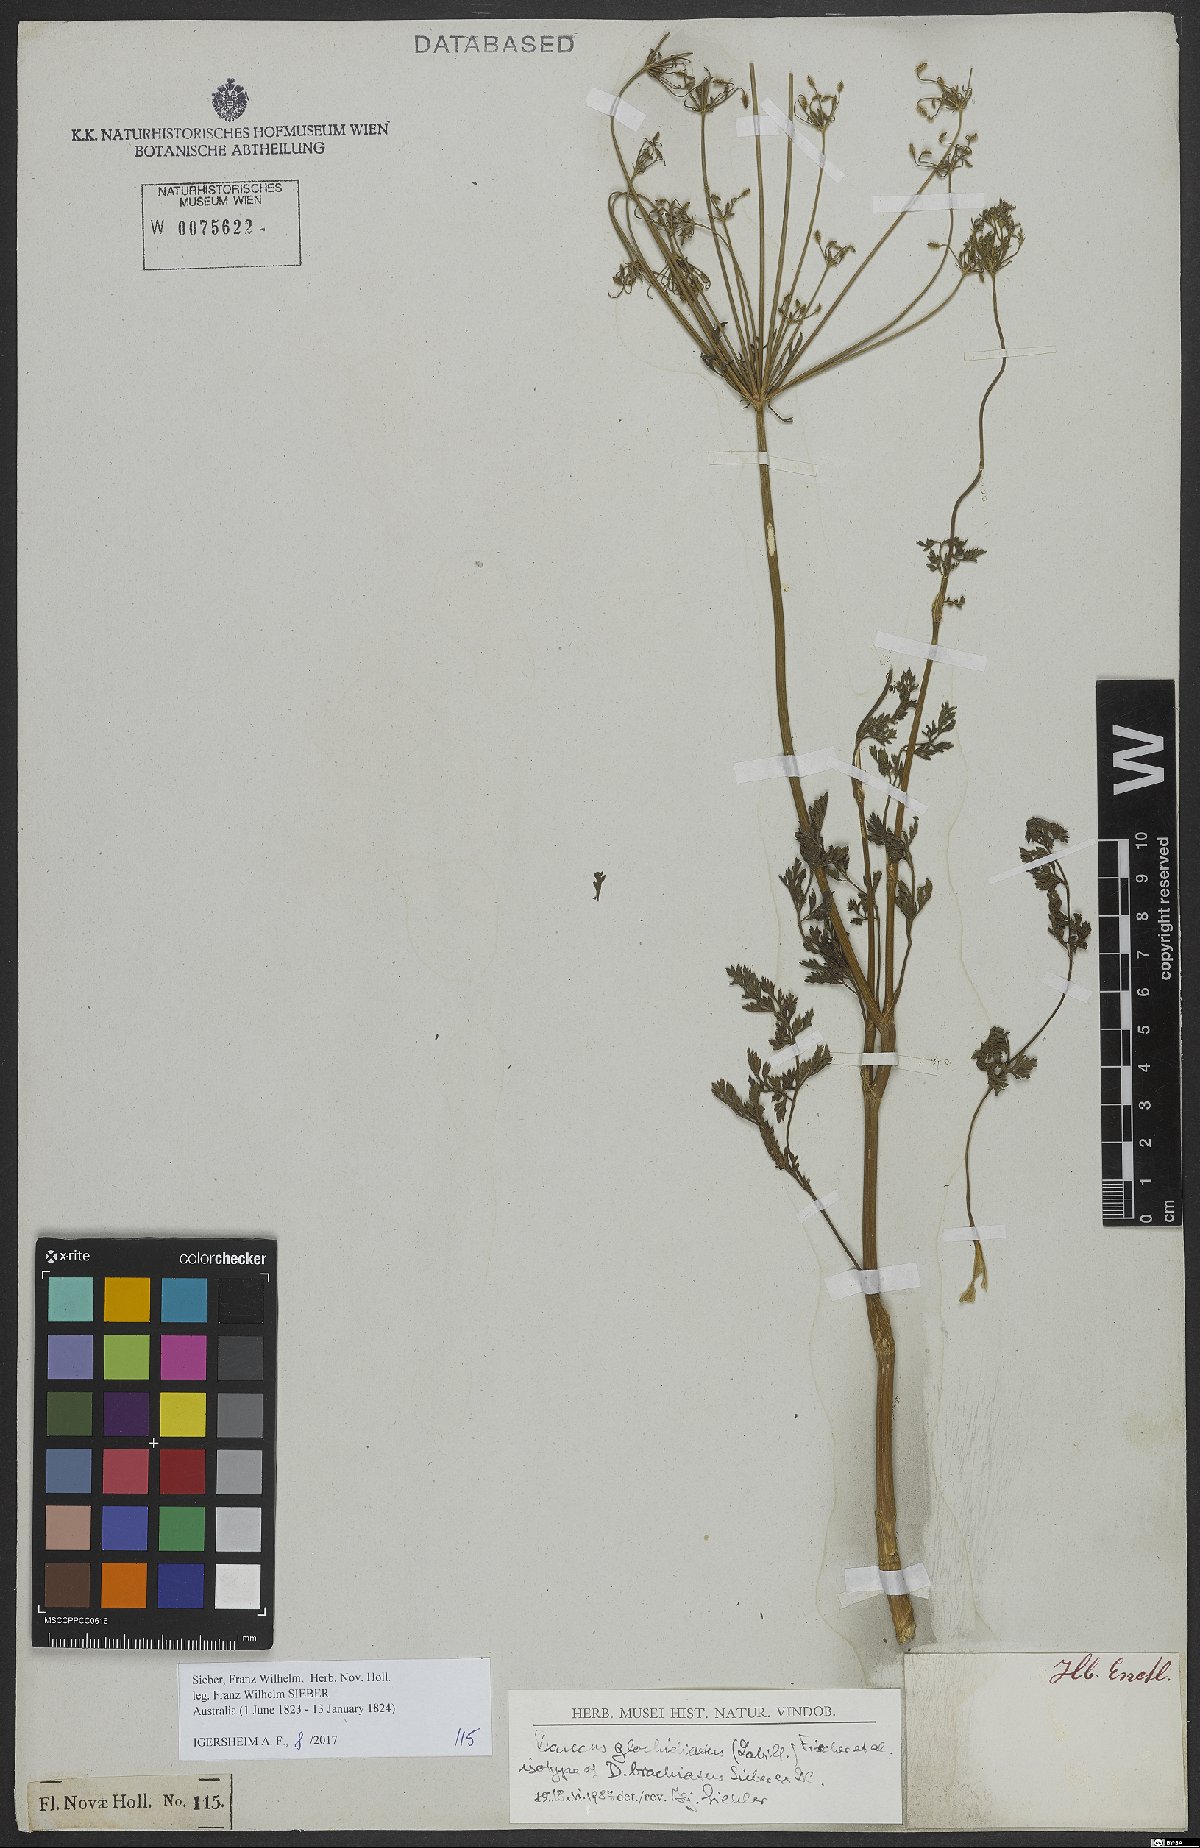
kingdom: Plantae
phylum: Tracheophyta
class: Magnoliopsida
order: Apiales
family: Apiaceae
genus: Daucus
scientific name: Daucus glochidiatus
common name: Australian carrot
